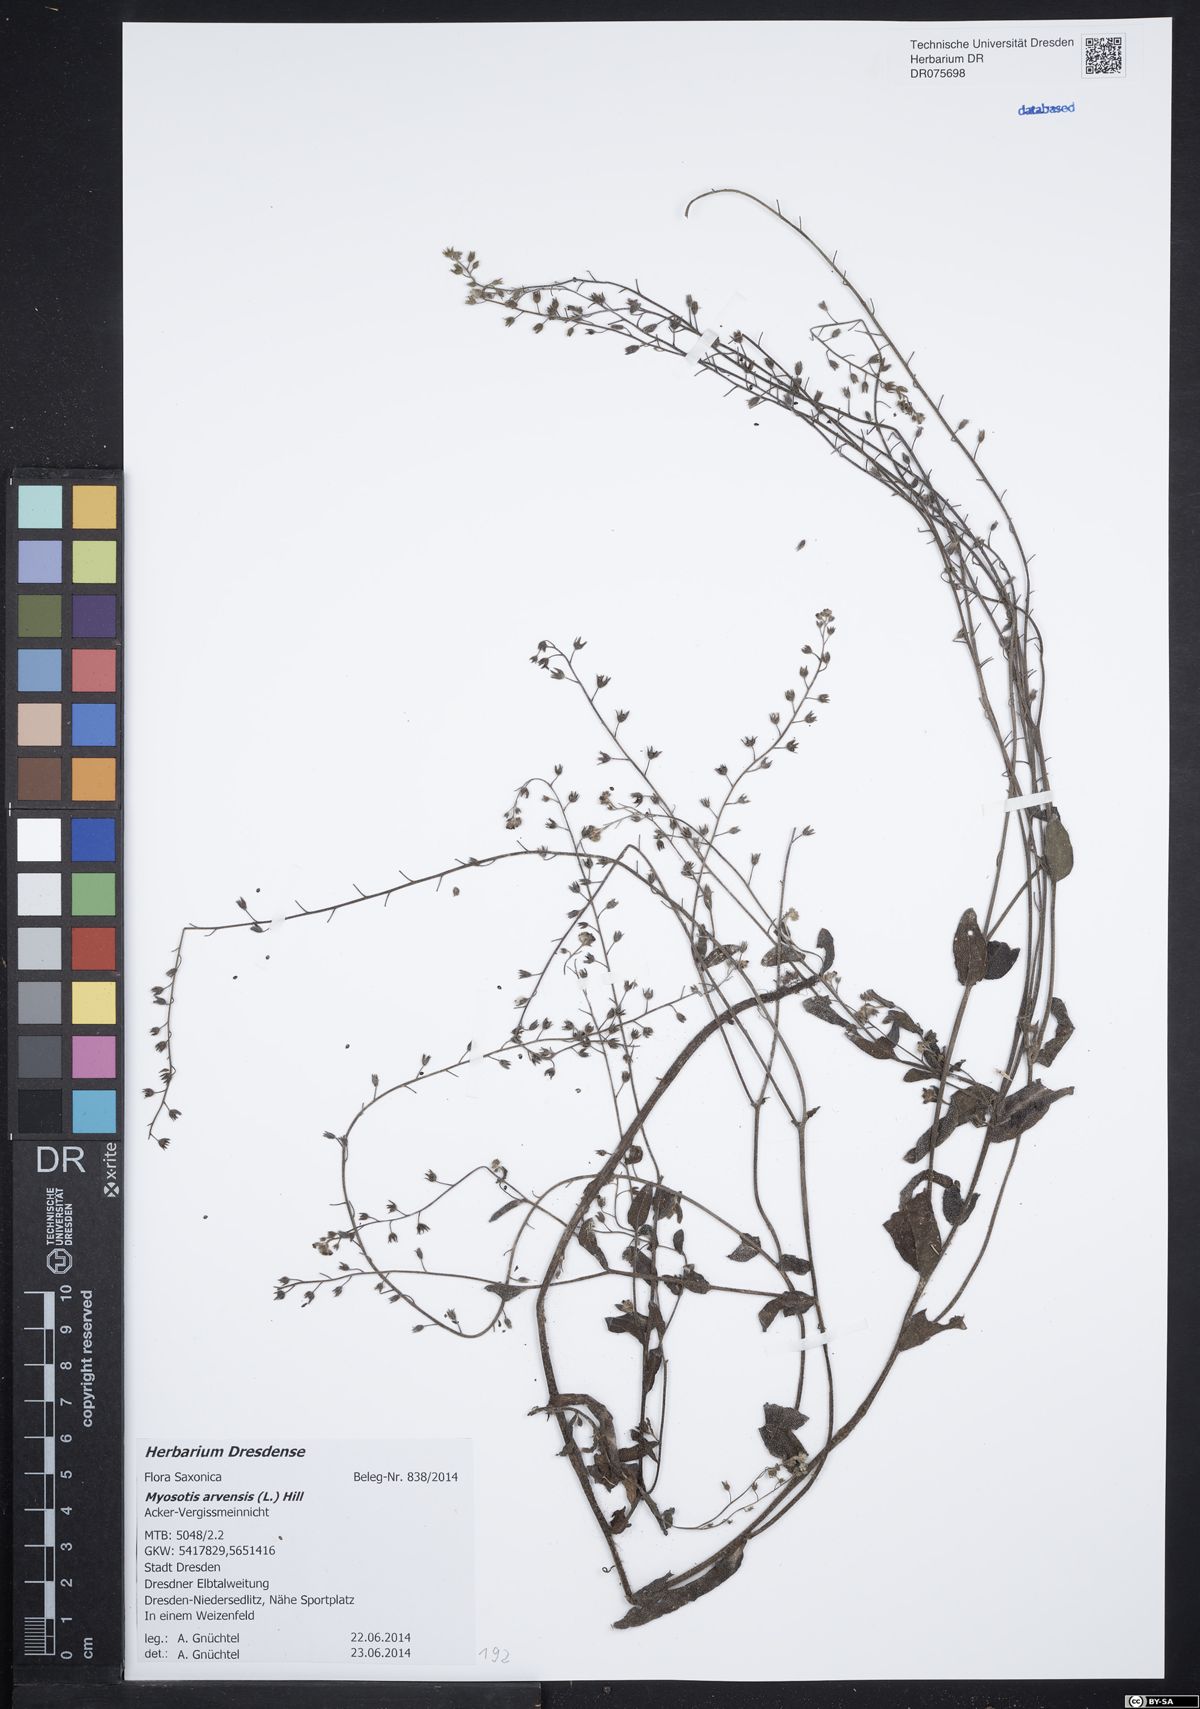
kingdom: Plantae
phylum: Tracheophyta
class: Magnoliopsida
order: Boraginales
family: Boraginaceae
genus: Myosotis
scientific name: Myosotis arvensis
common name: Field forget-me-not
